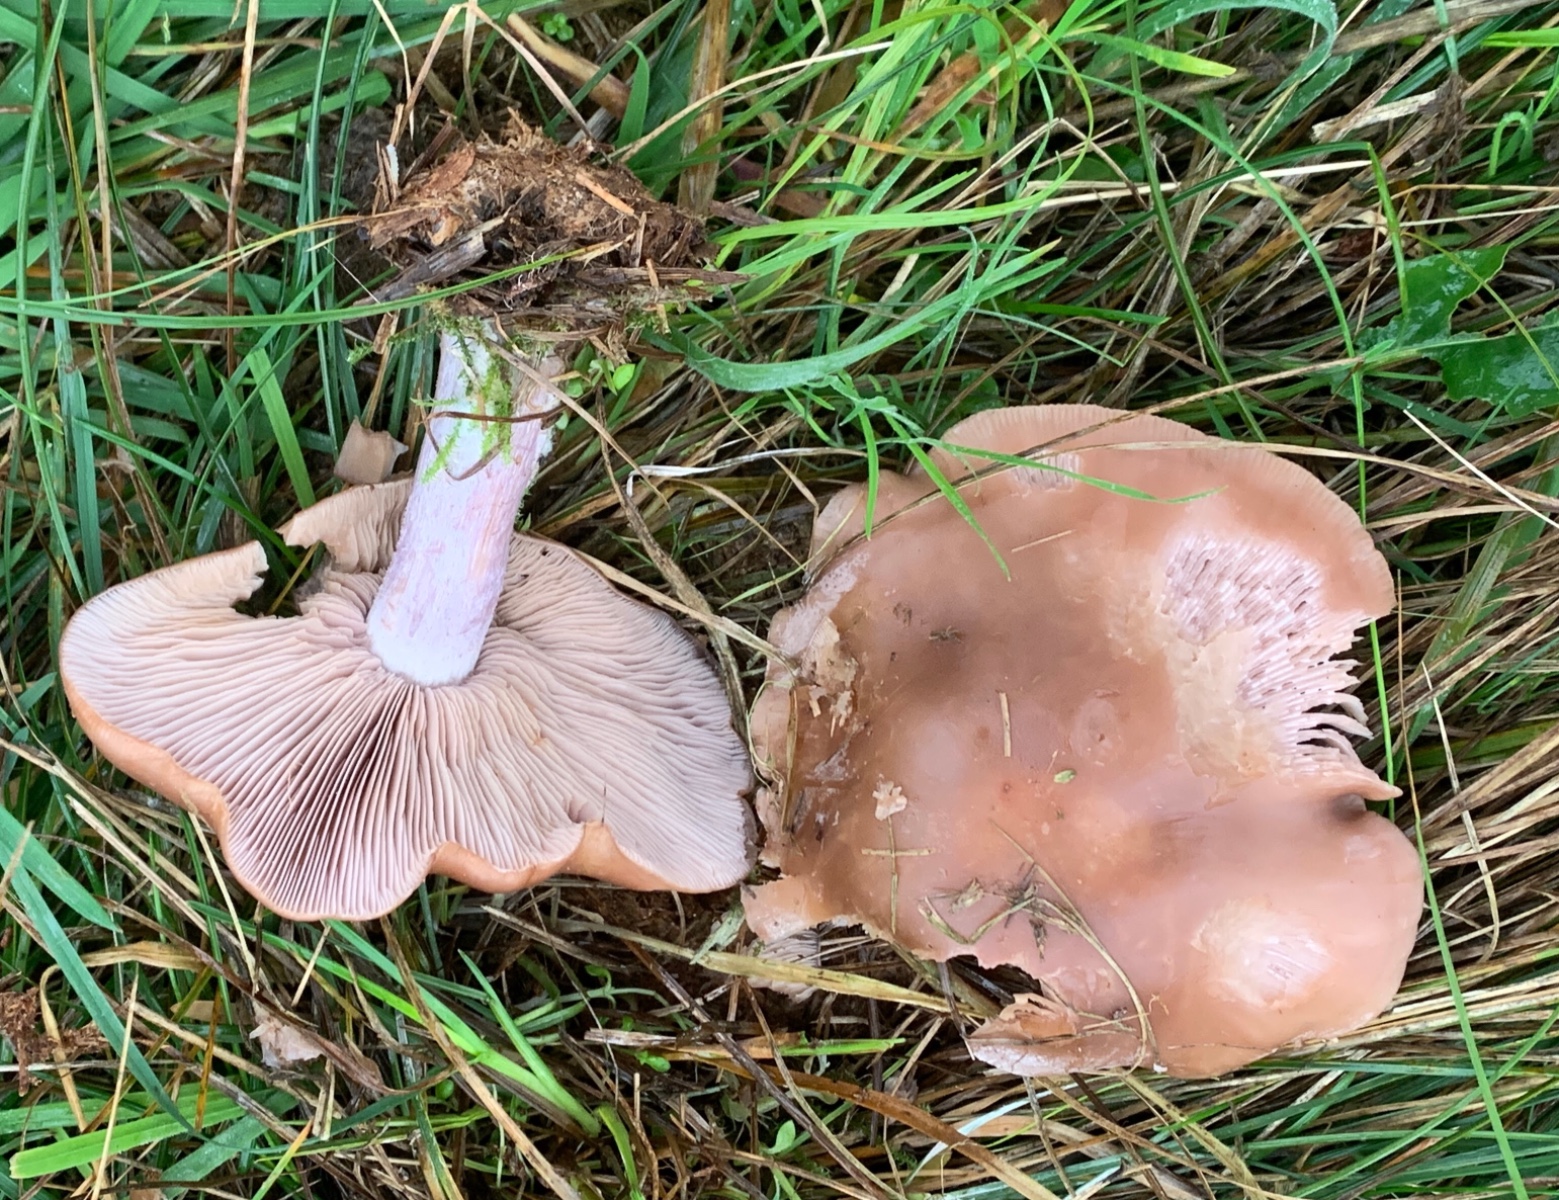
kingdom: Fungi
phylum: Basidiomycota
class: Agaricomycetes
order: Agaricales
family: Tricholomataceae
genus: Lepista
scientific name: Lepista personata
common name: bleg hekseringshat
